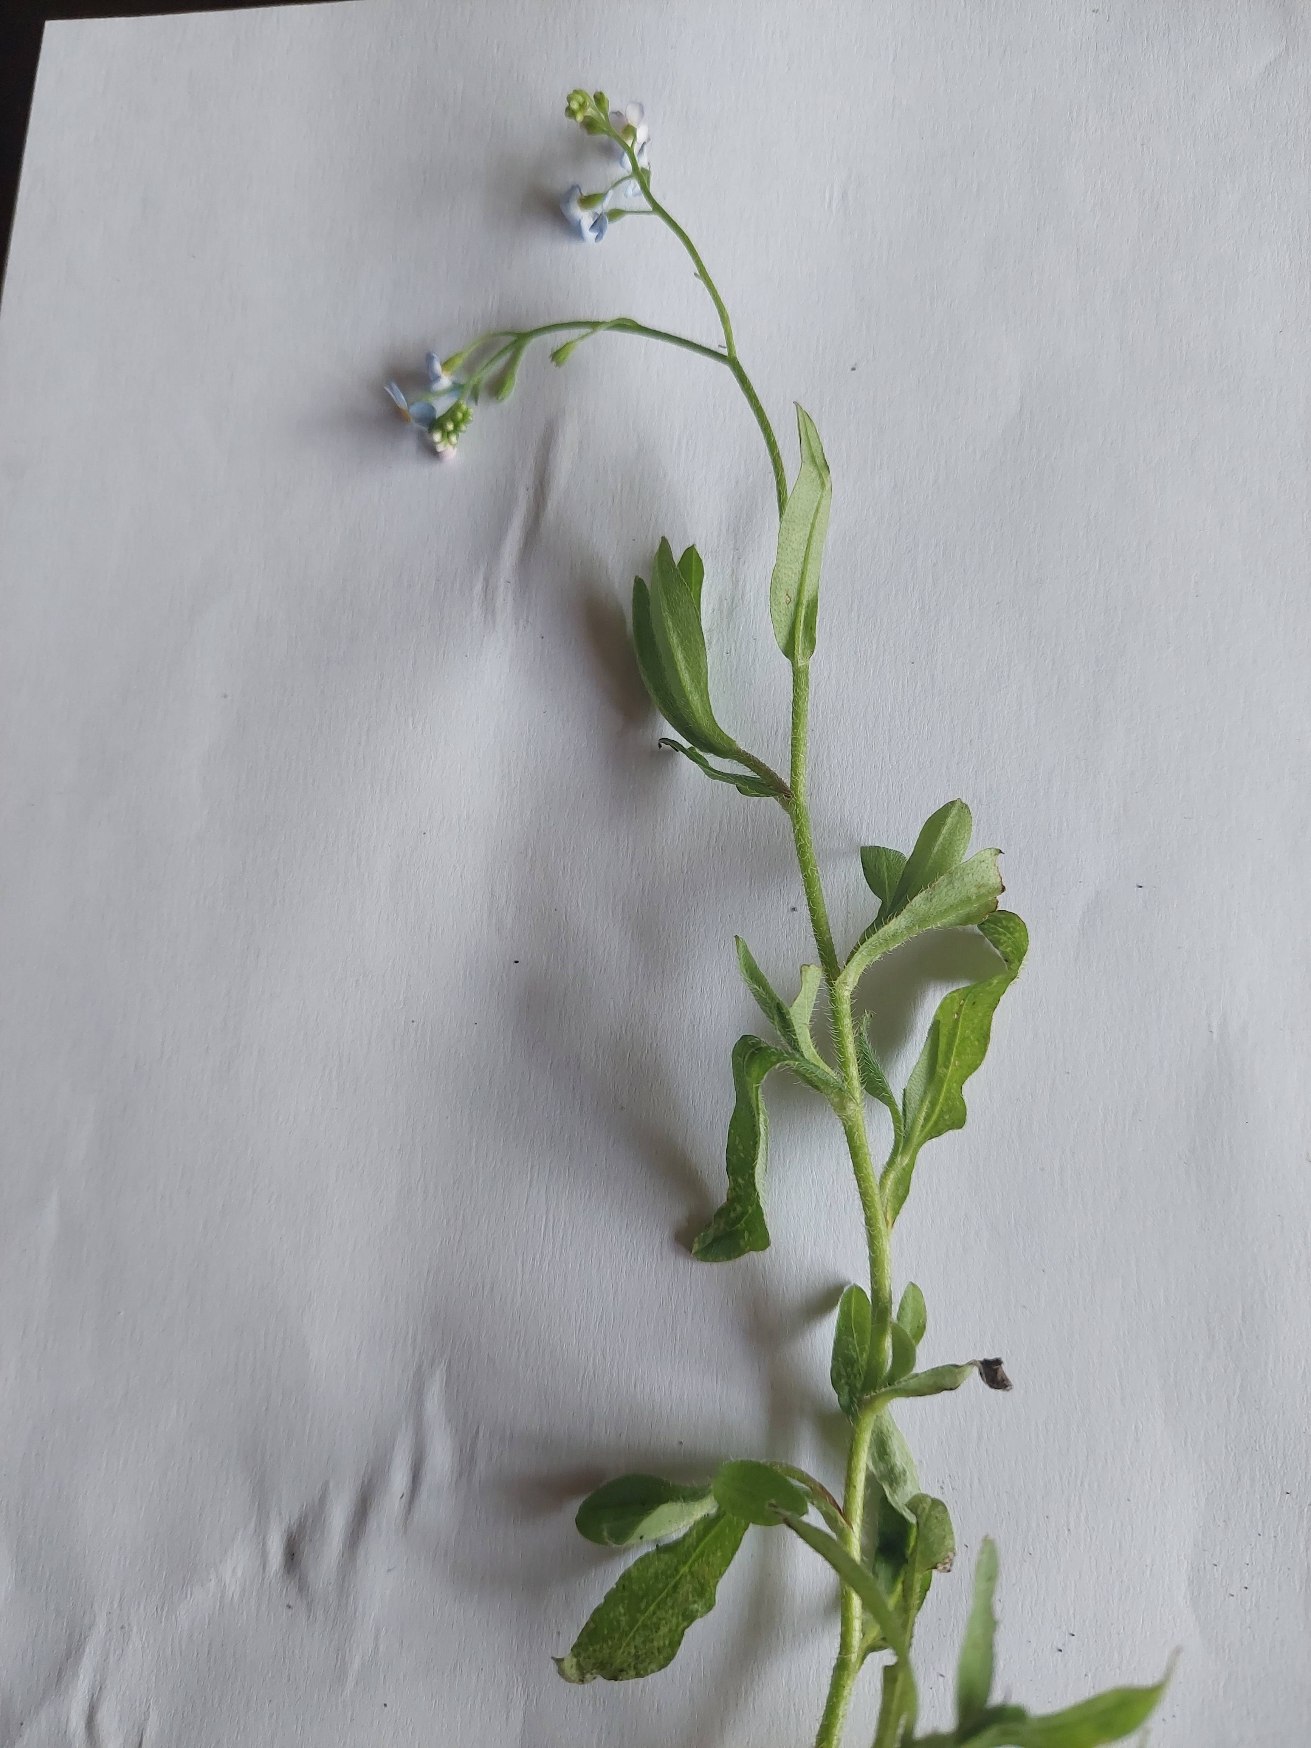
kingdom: Plantae
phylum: Tracheophyta
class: Magnoliopsida
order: Boraginales
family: Boraginaceae
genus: Myosotis
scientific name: Myosotis scorpioides
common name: Eng-forglemmigej
